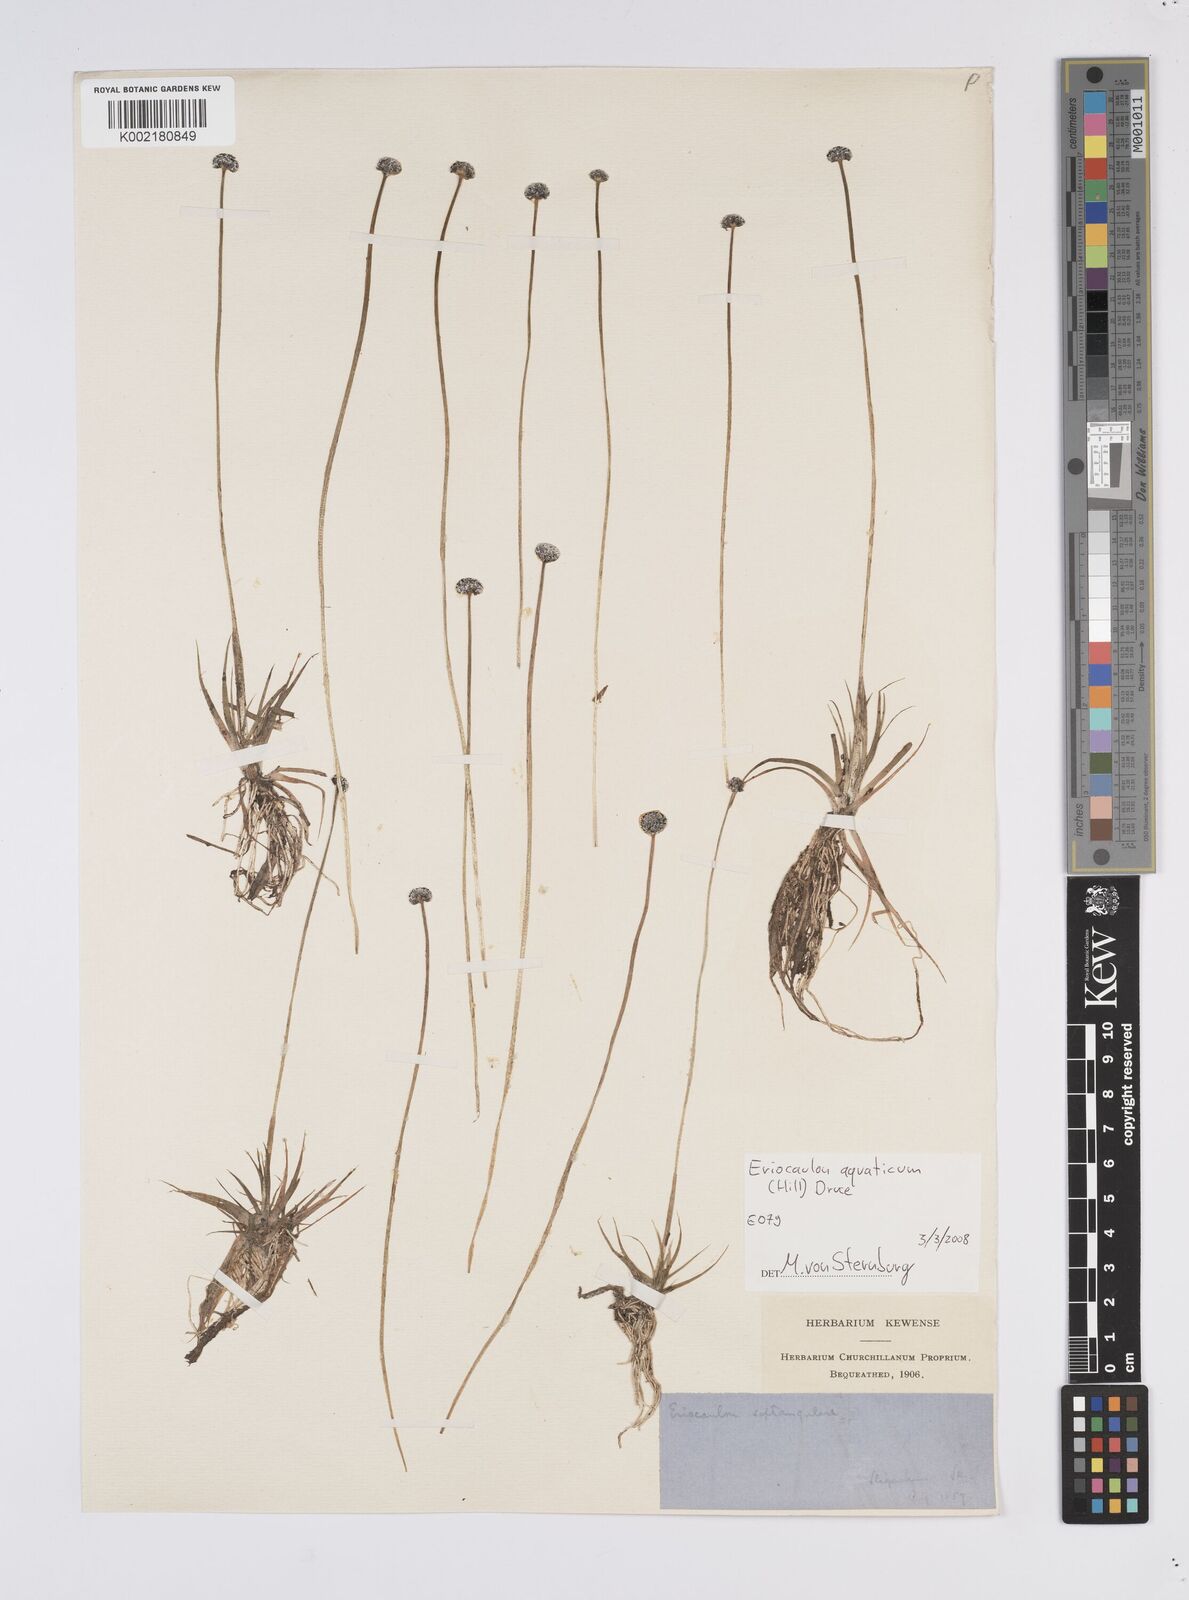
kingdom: Plantae
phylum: Tracheophyta
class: Liliopsida
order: Poales
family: Eriocaulaceae
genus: Eriocaulon
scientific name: Eriocaulon aquaticum
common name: Pipewort
